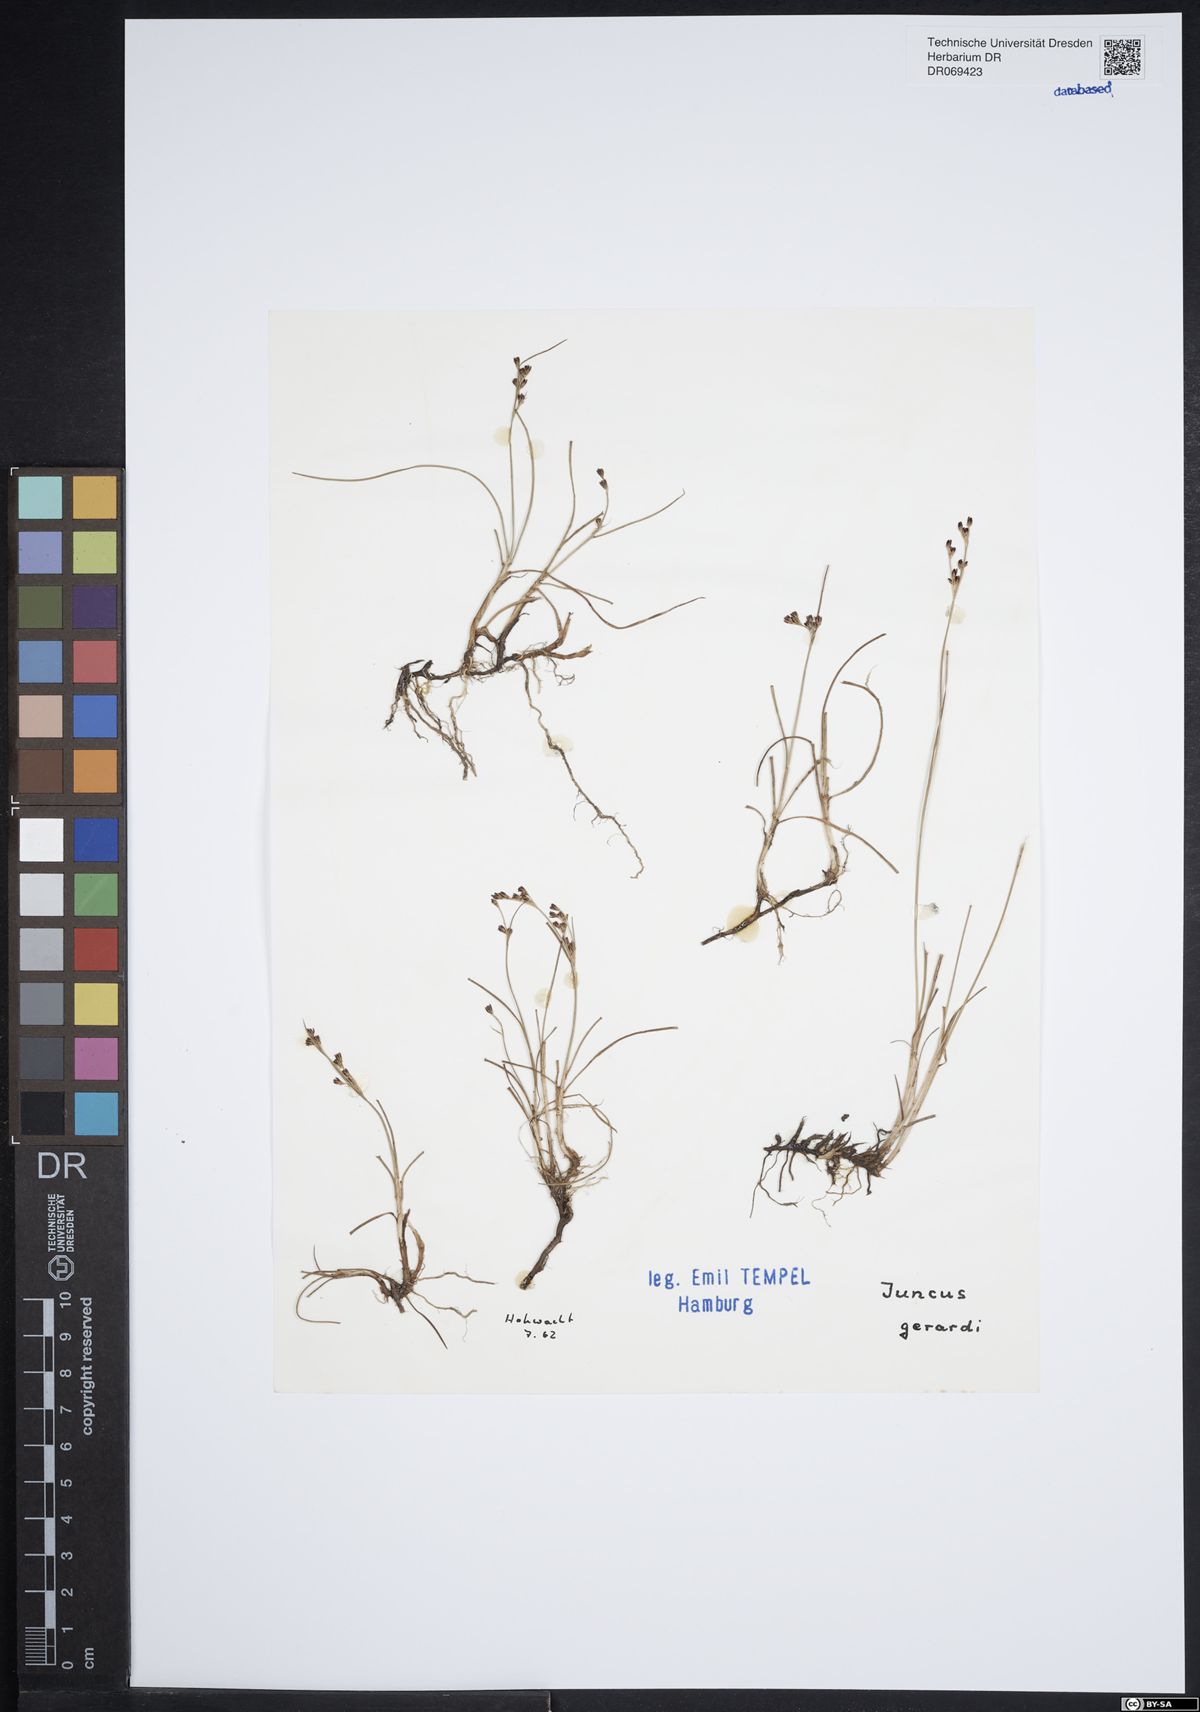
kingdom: Plantae
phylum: Tracheophyta
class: Liliopsida
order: Poales
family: Juncaceae
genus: Juncus
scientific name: Juncus gerardi
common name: Saltmarsh rush
